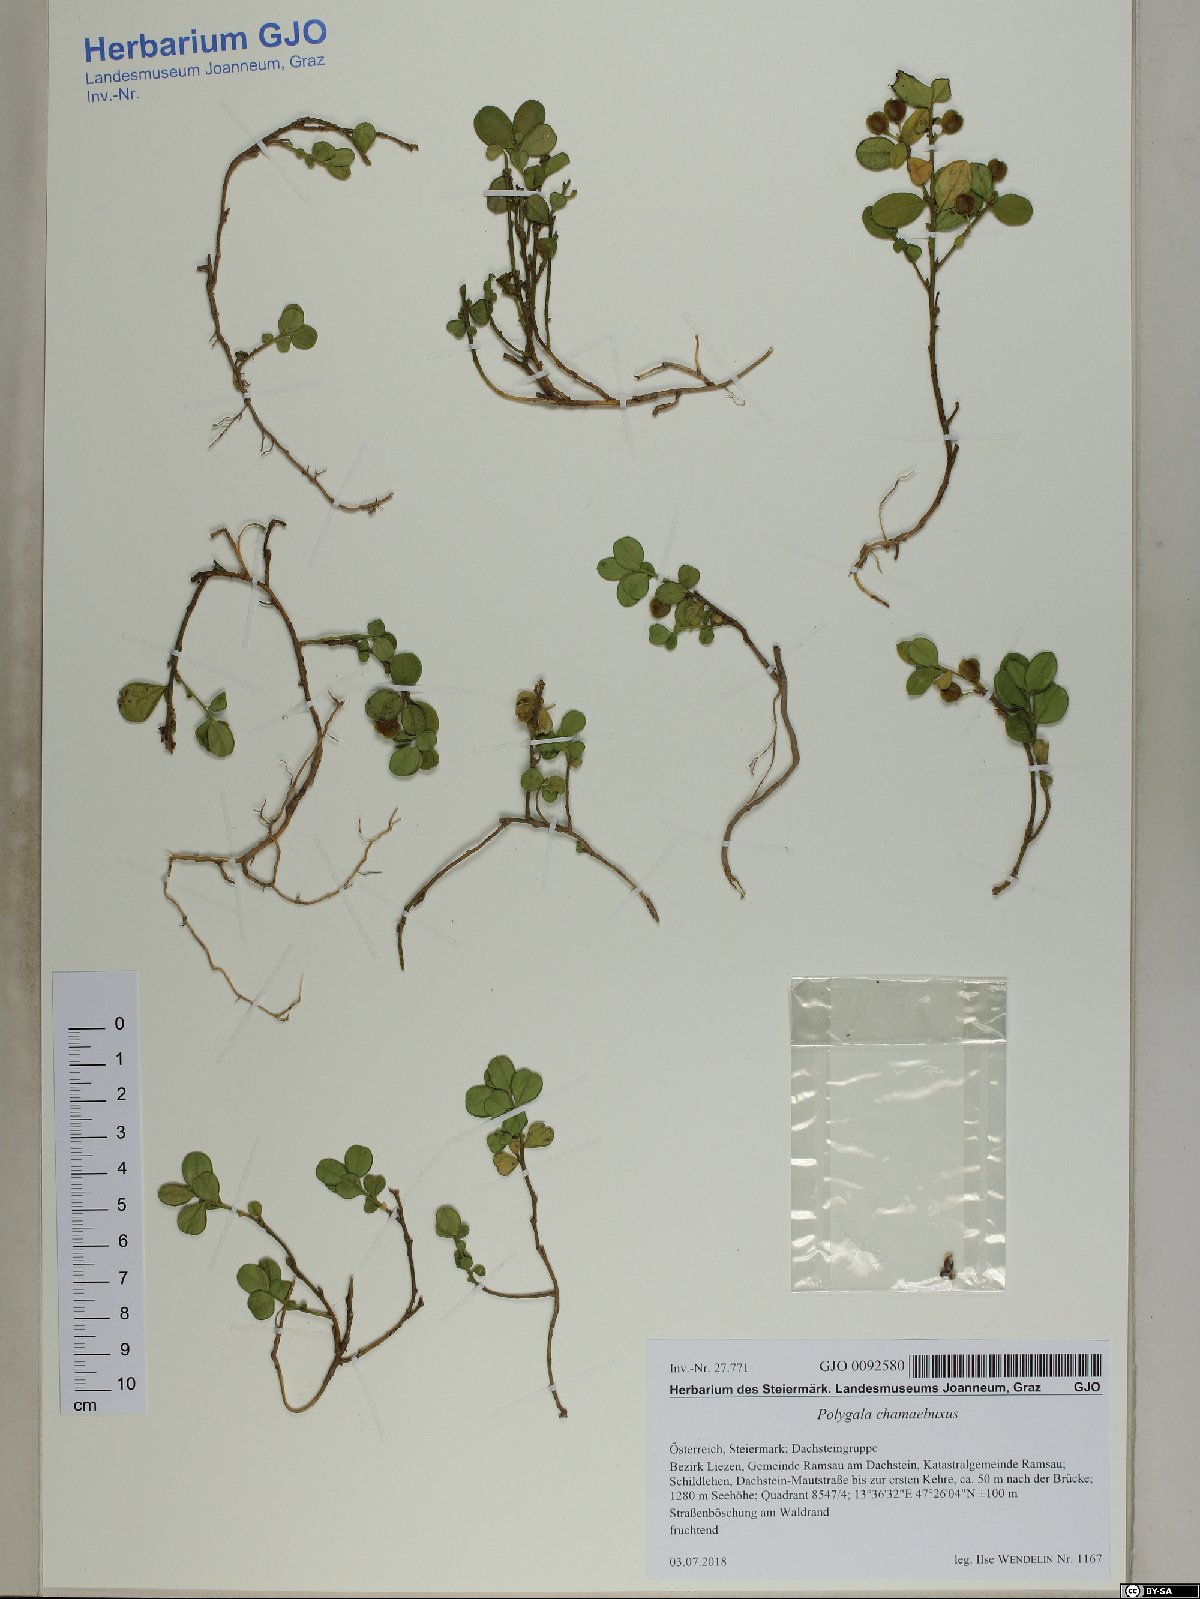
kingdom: Plantae
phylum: Tracheophyta
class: Magnoliopsida
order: Fabales
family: Polygalaceae
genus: Polygaloides
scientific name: Polygaloides chamaebuxus
